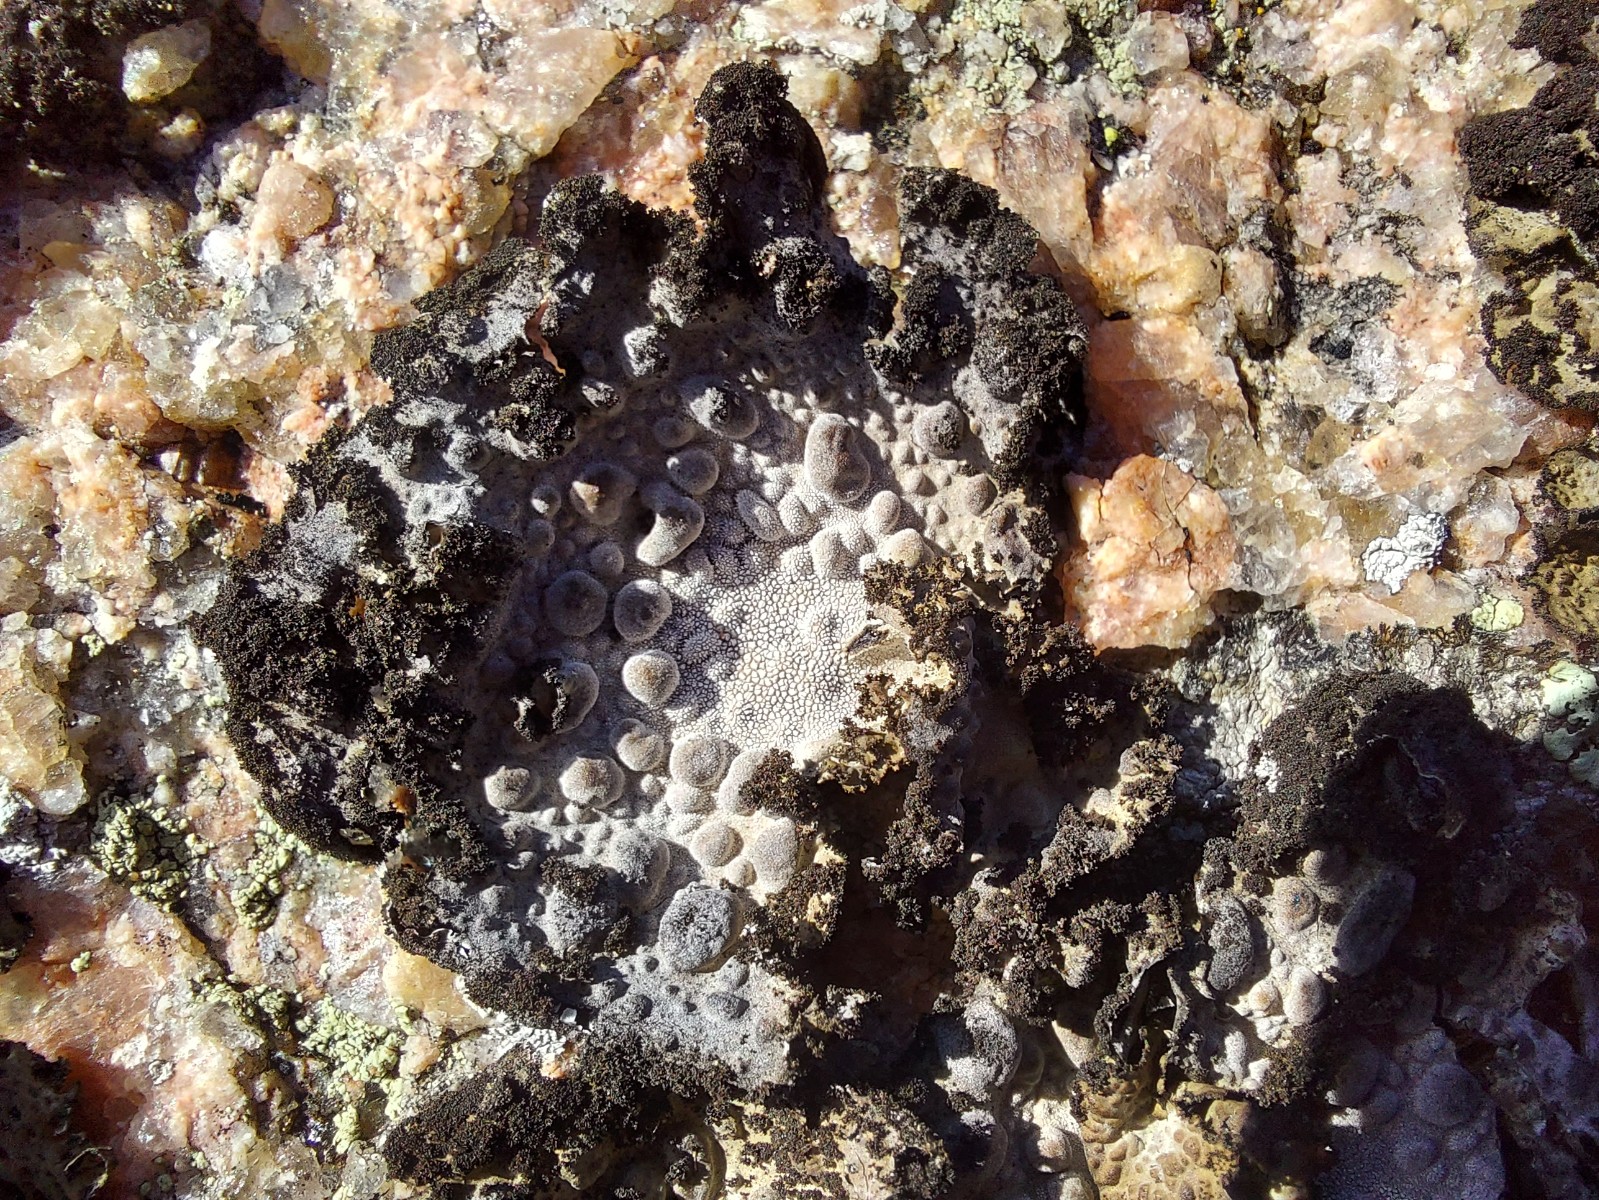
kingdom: Fungi
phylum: Ascomycota
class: Lecanoromycetes
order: Umbilicariales
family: Umbilicariaceae
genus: Lasallia
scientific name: Lasallia pustulata
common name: buklet navlelav
